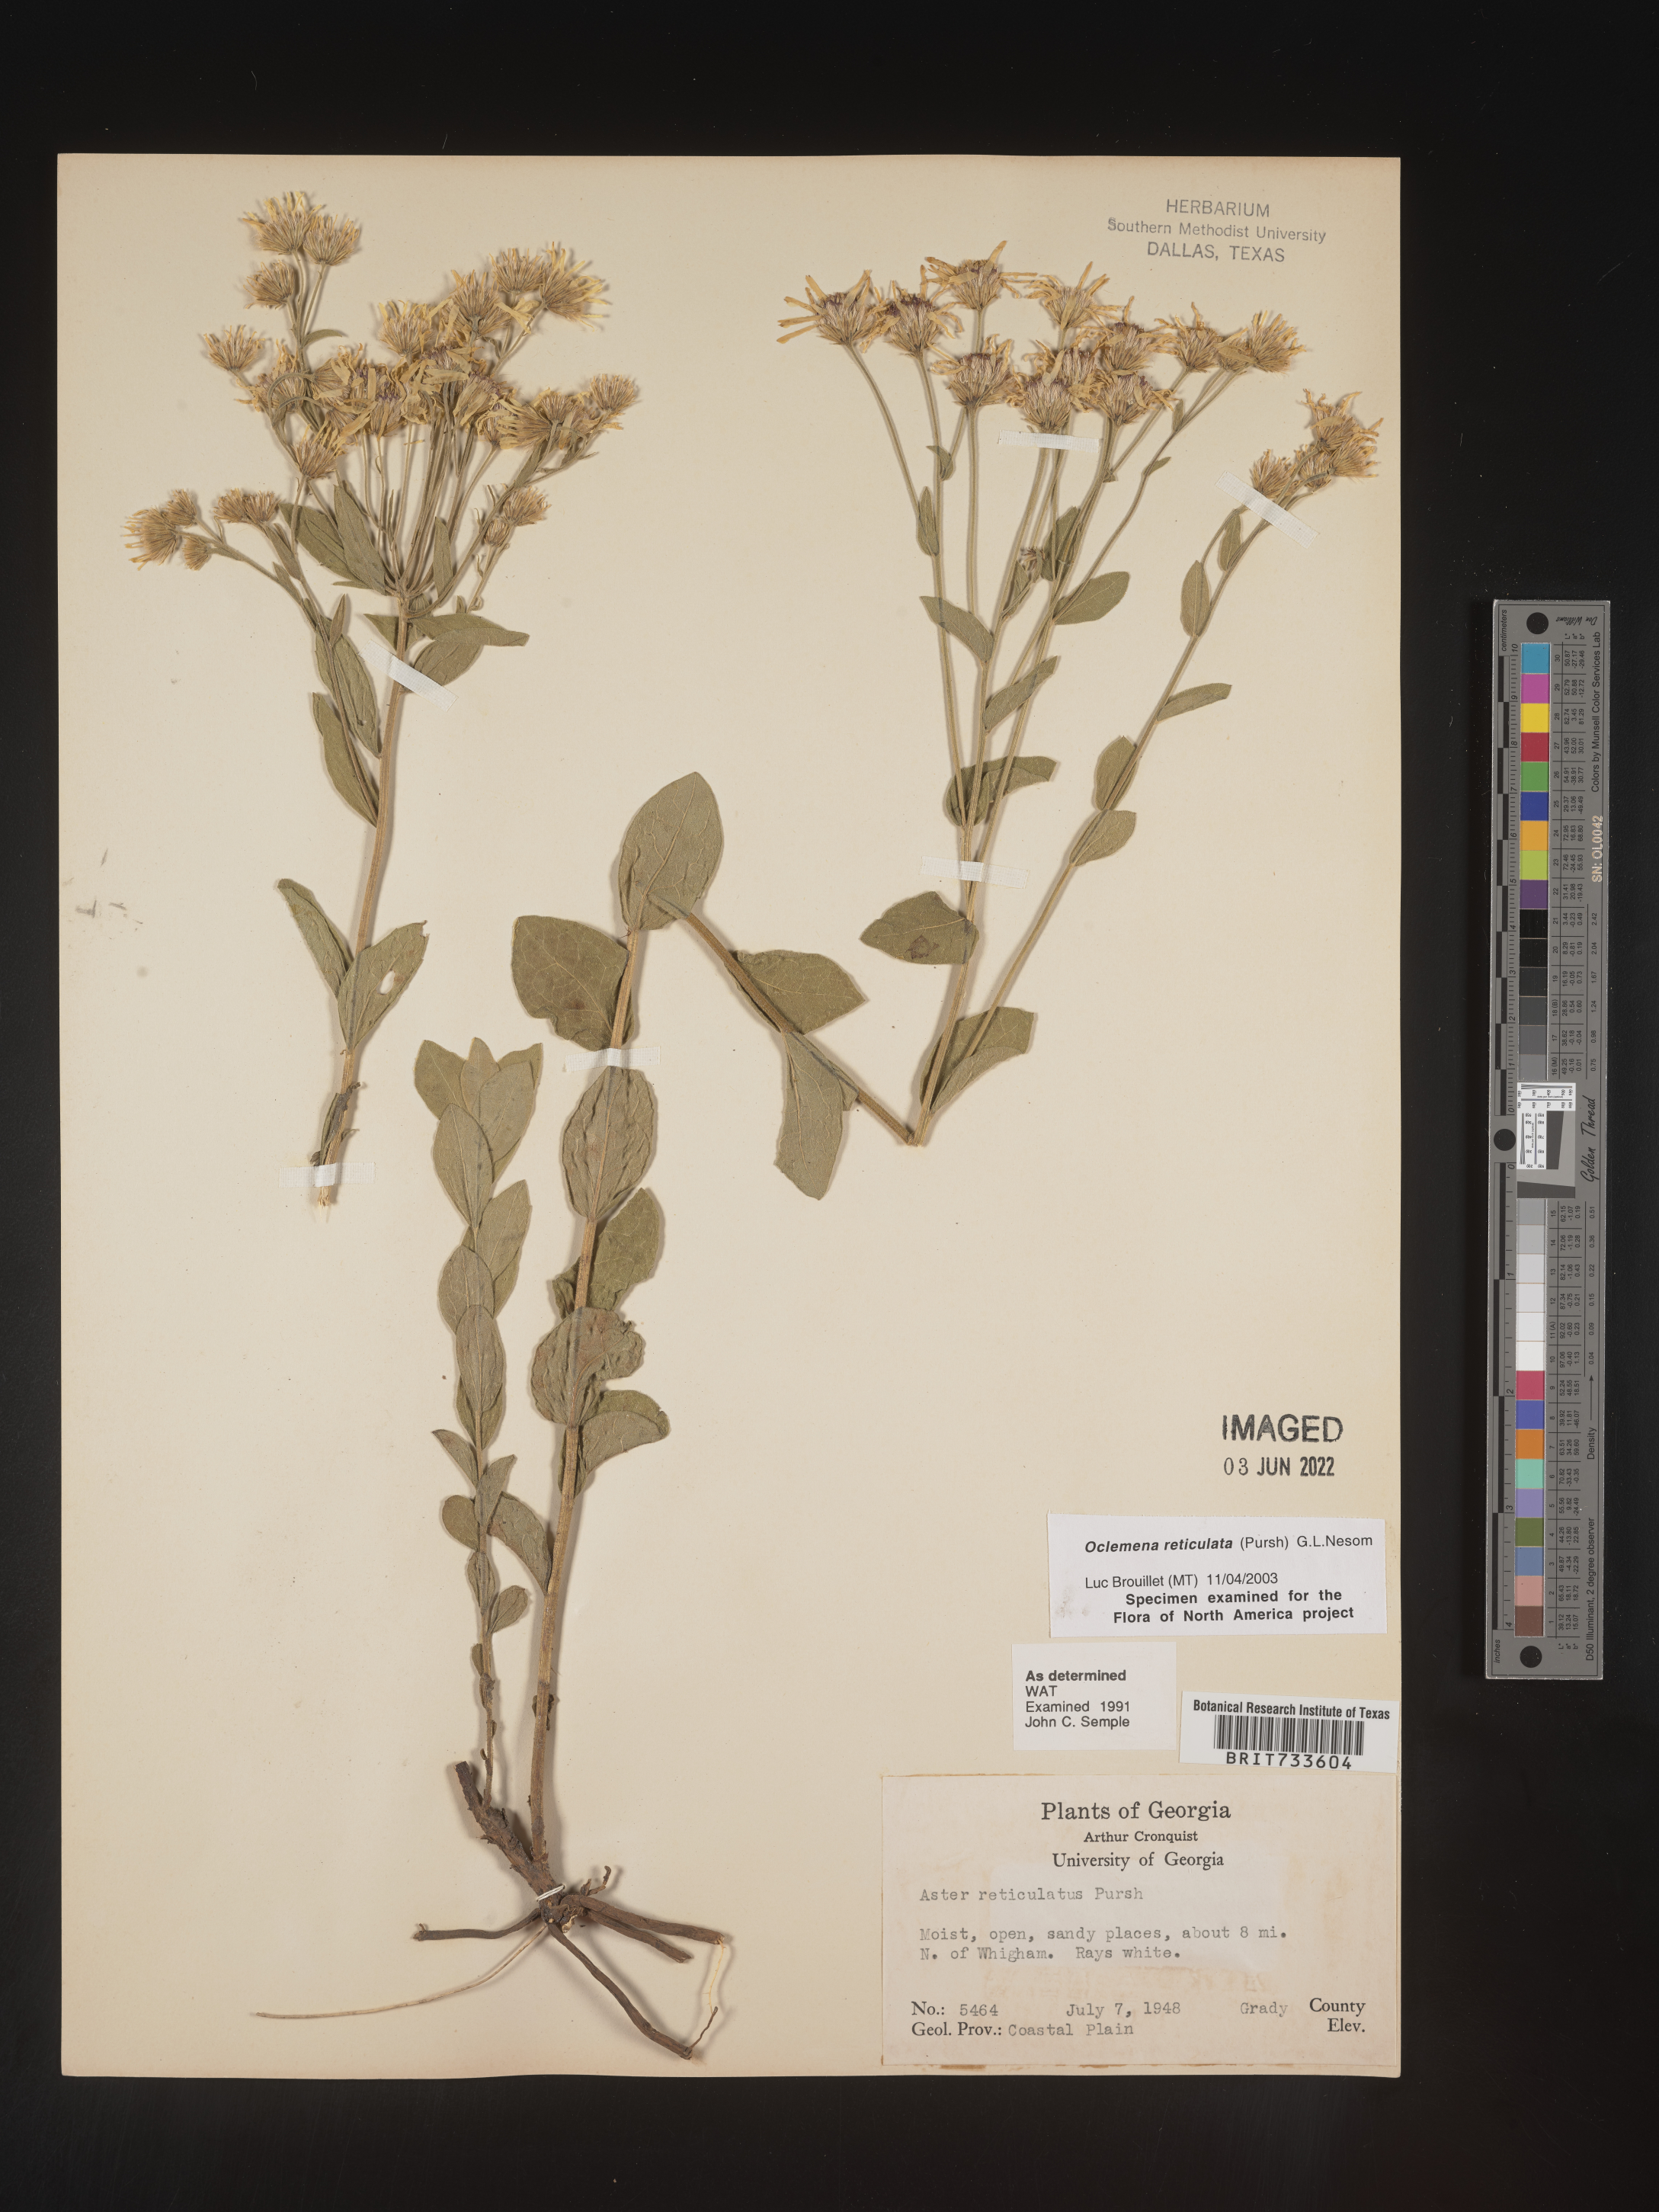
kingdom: Plantae
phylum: Tracheophyta
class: Magnoliopsida
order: Asterales
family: Asteraceae
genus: Oclemena
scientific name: Oclemena reticulata
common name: Pinebarren aster
